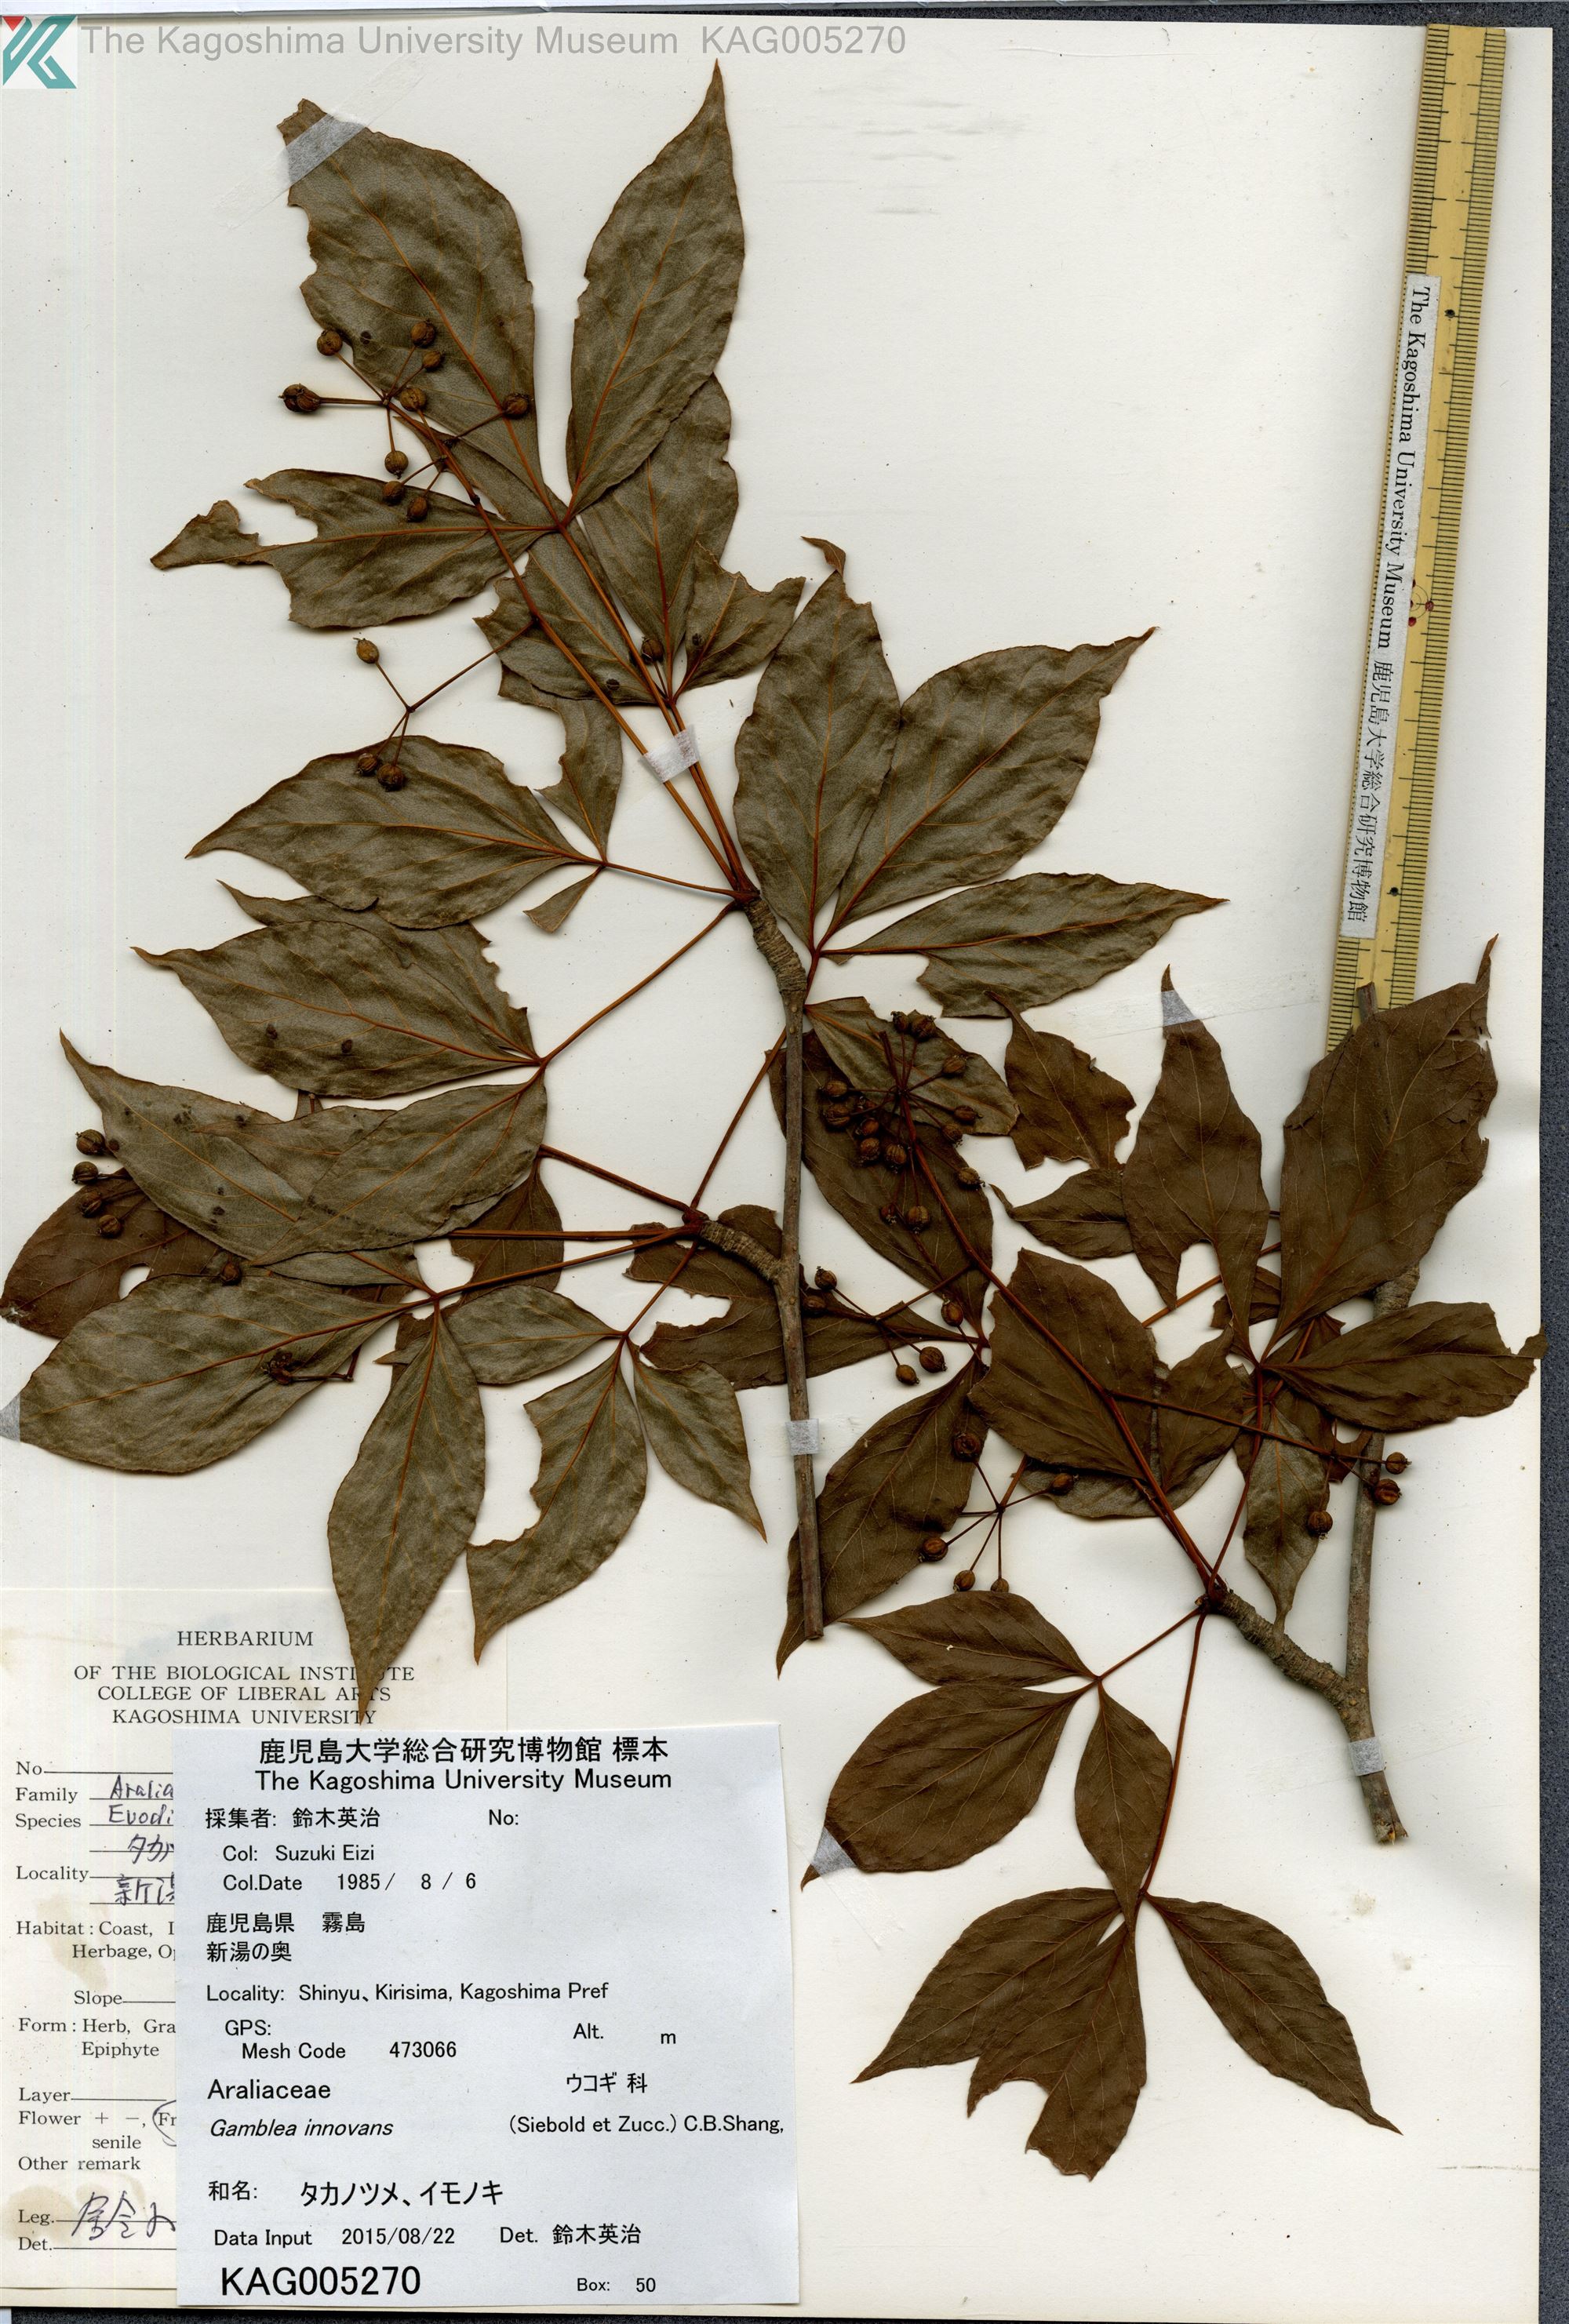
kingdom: Plantae
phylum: Tracheophyta
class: Magnoliopsida
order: Apiales
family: Araliaceae
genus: Gamblea
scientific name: Gamblea innovans
